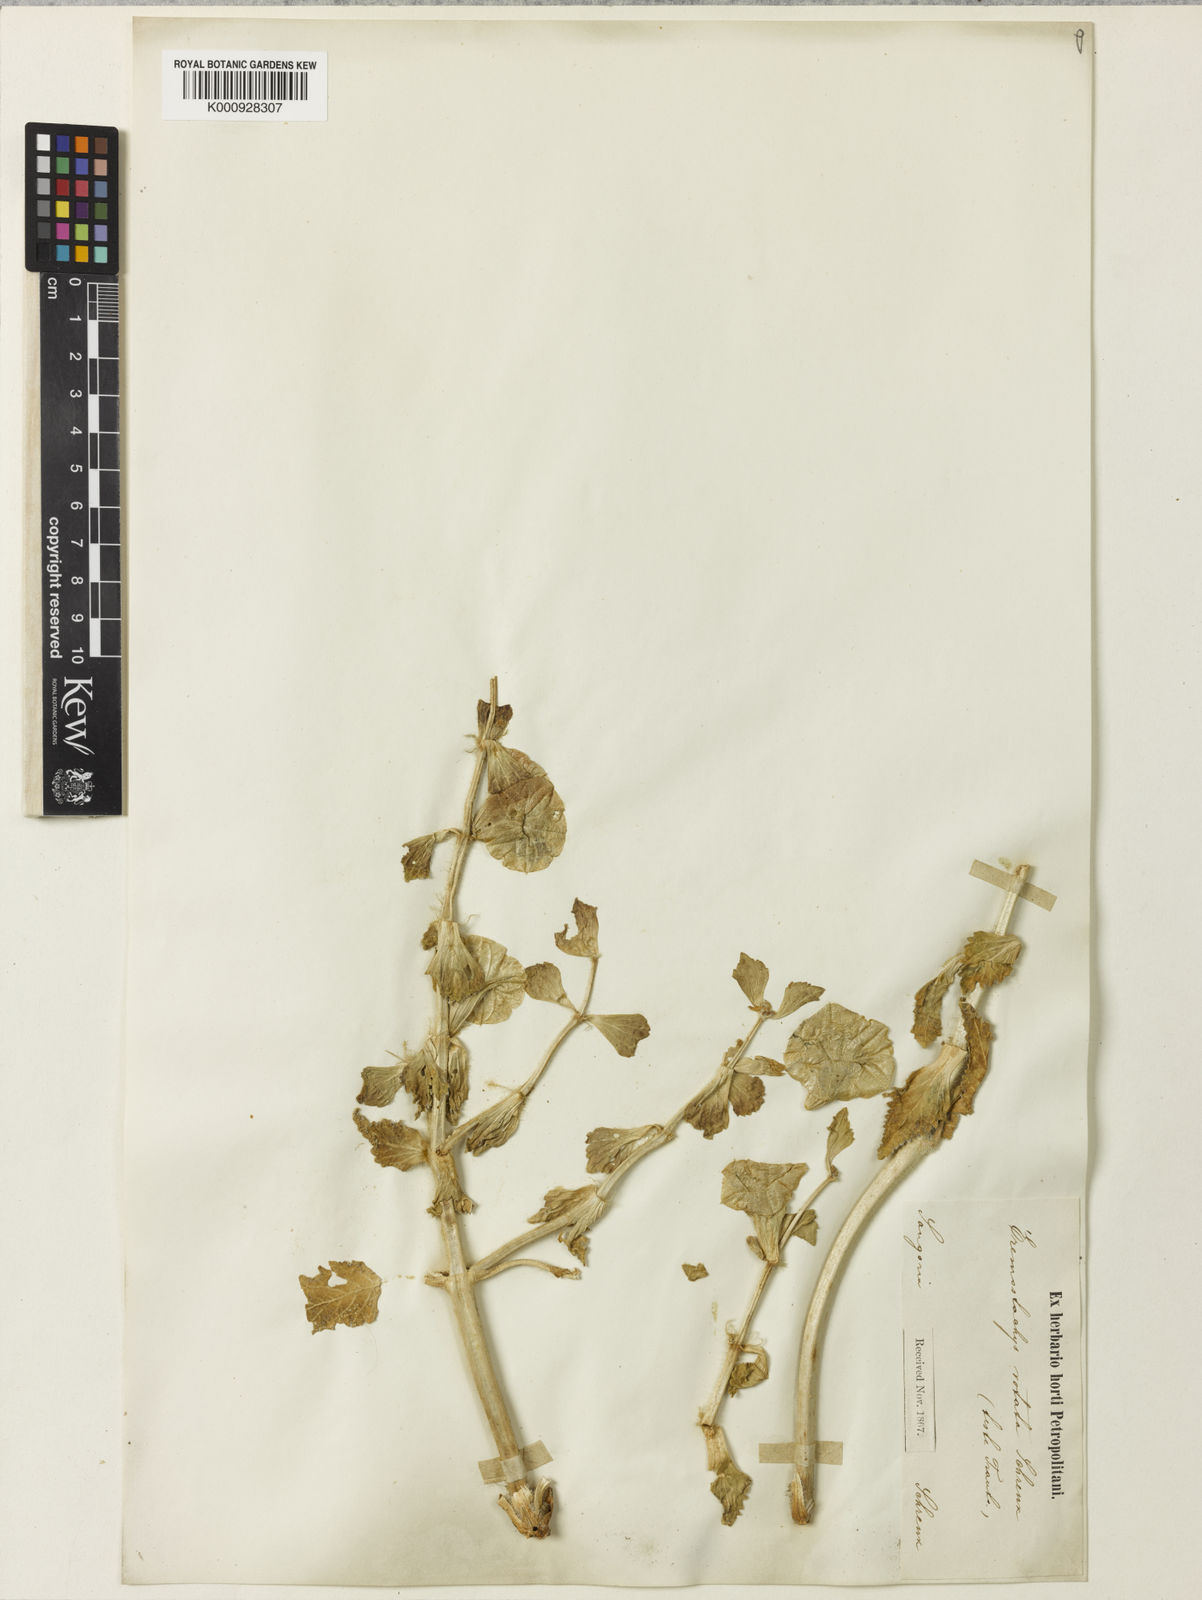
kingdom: Plantae
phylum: Tracheophyta
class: Magnoliopsida
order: Lamiales
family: Lamiaceae
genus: Phlomoides
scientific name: Phlomoides
